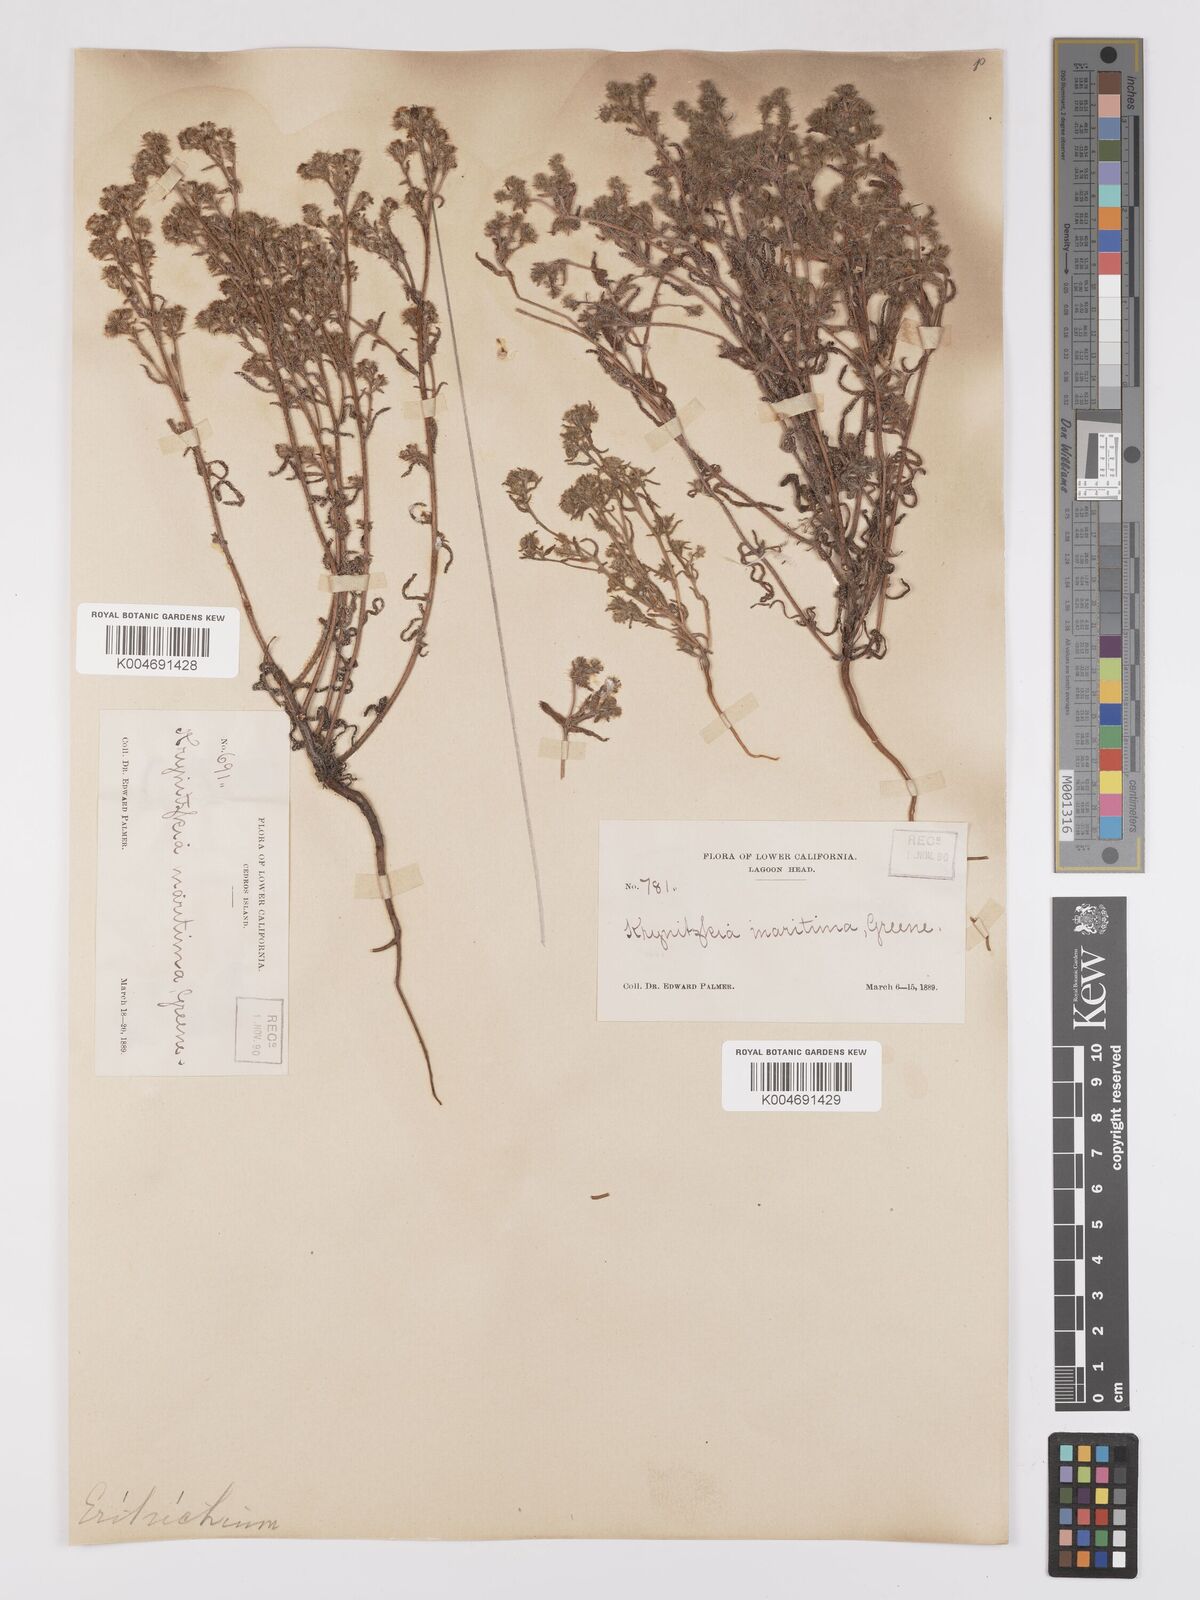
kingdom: Plantae
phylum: Tracheophyta
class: Magnoliopsida
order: Boraginales
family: Boraginaceae
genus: Cryptantha
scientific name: Cryptantha maritima
